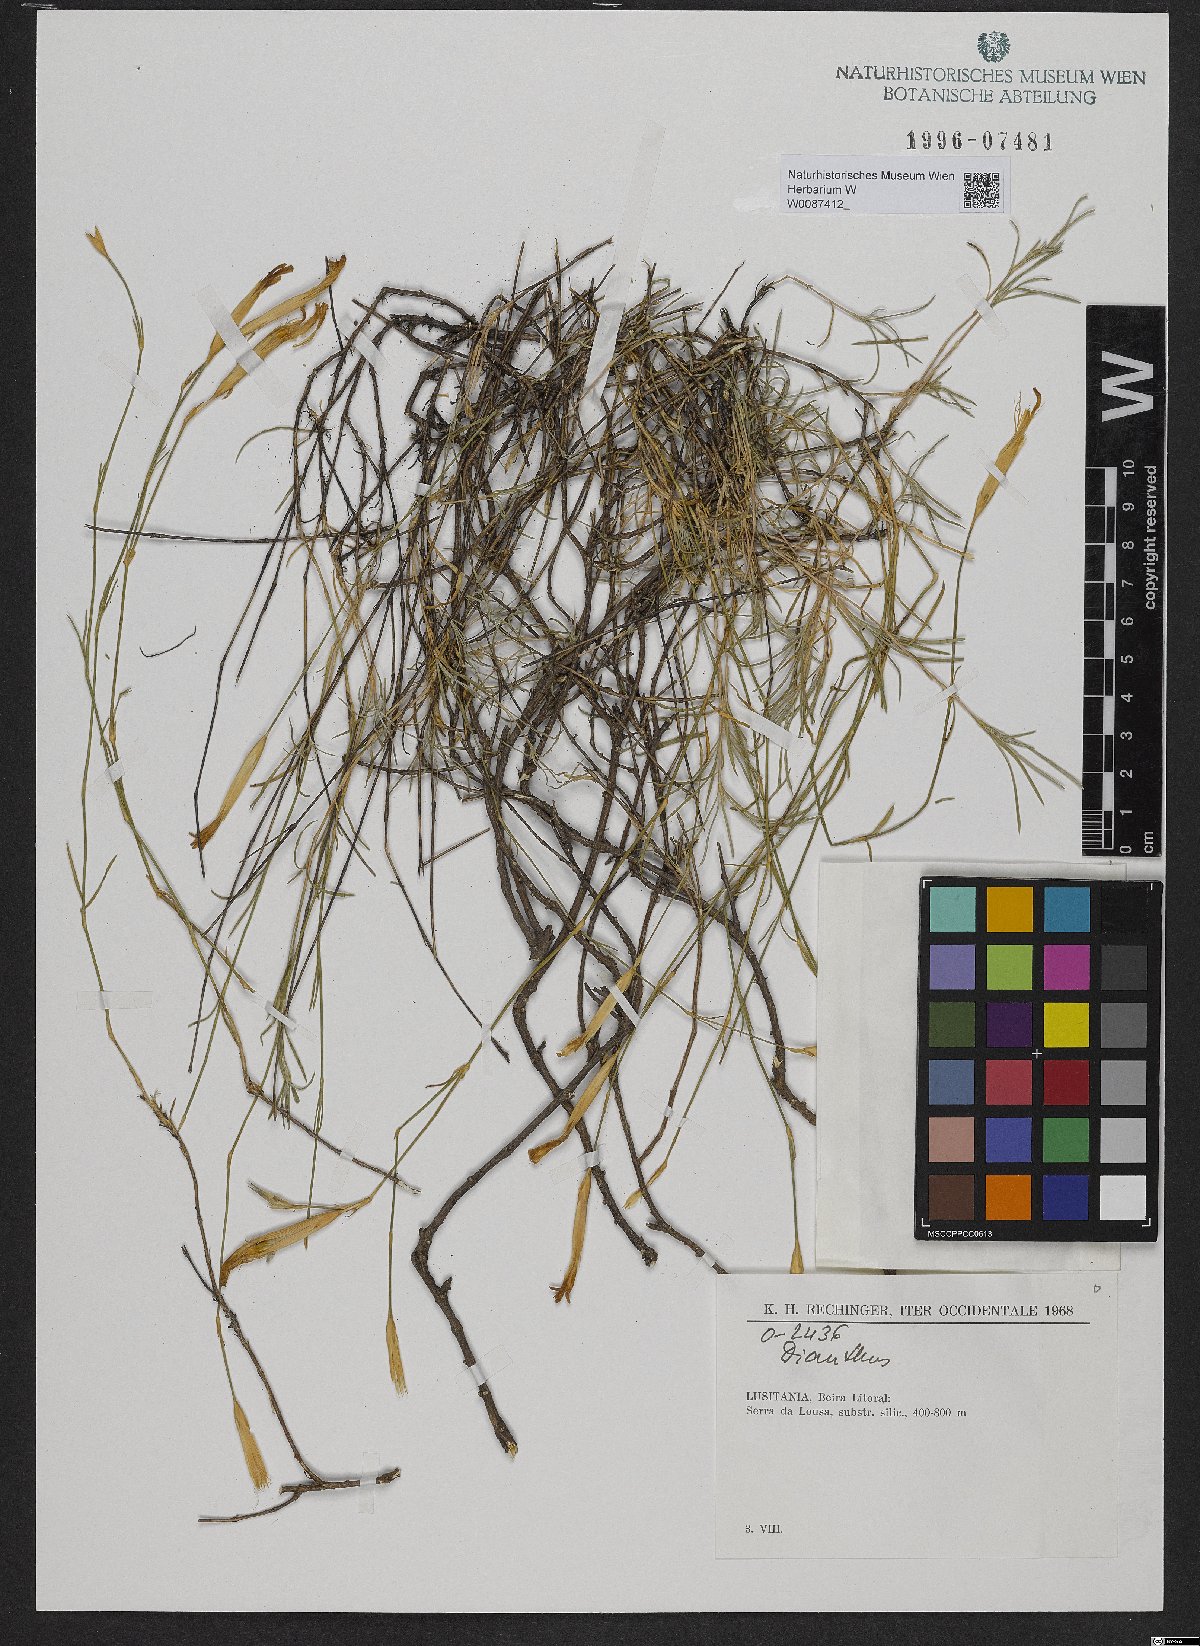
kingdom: Plantae
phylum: Tracheophyta
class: Magnoliopsida
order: Caryophyllales
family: Caryophyllaceae
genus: Dianthus
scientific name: Dianthus
